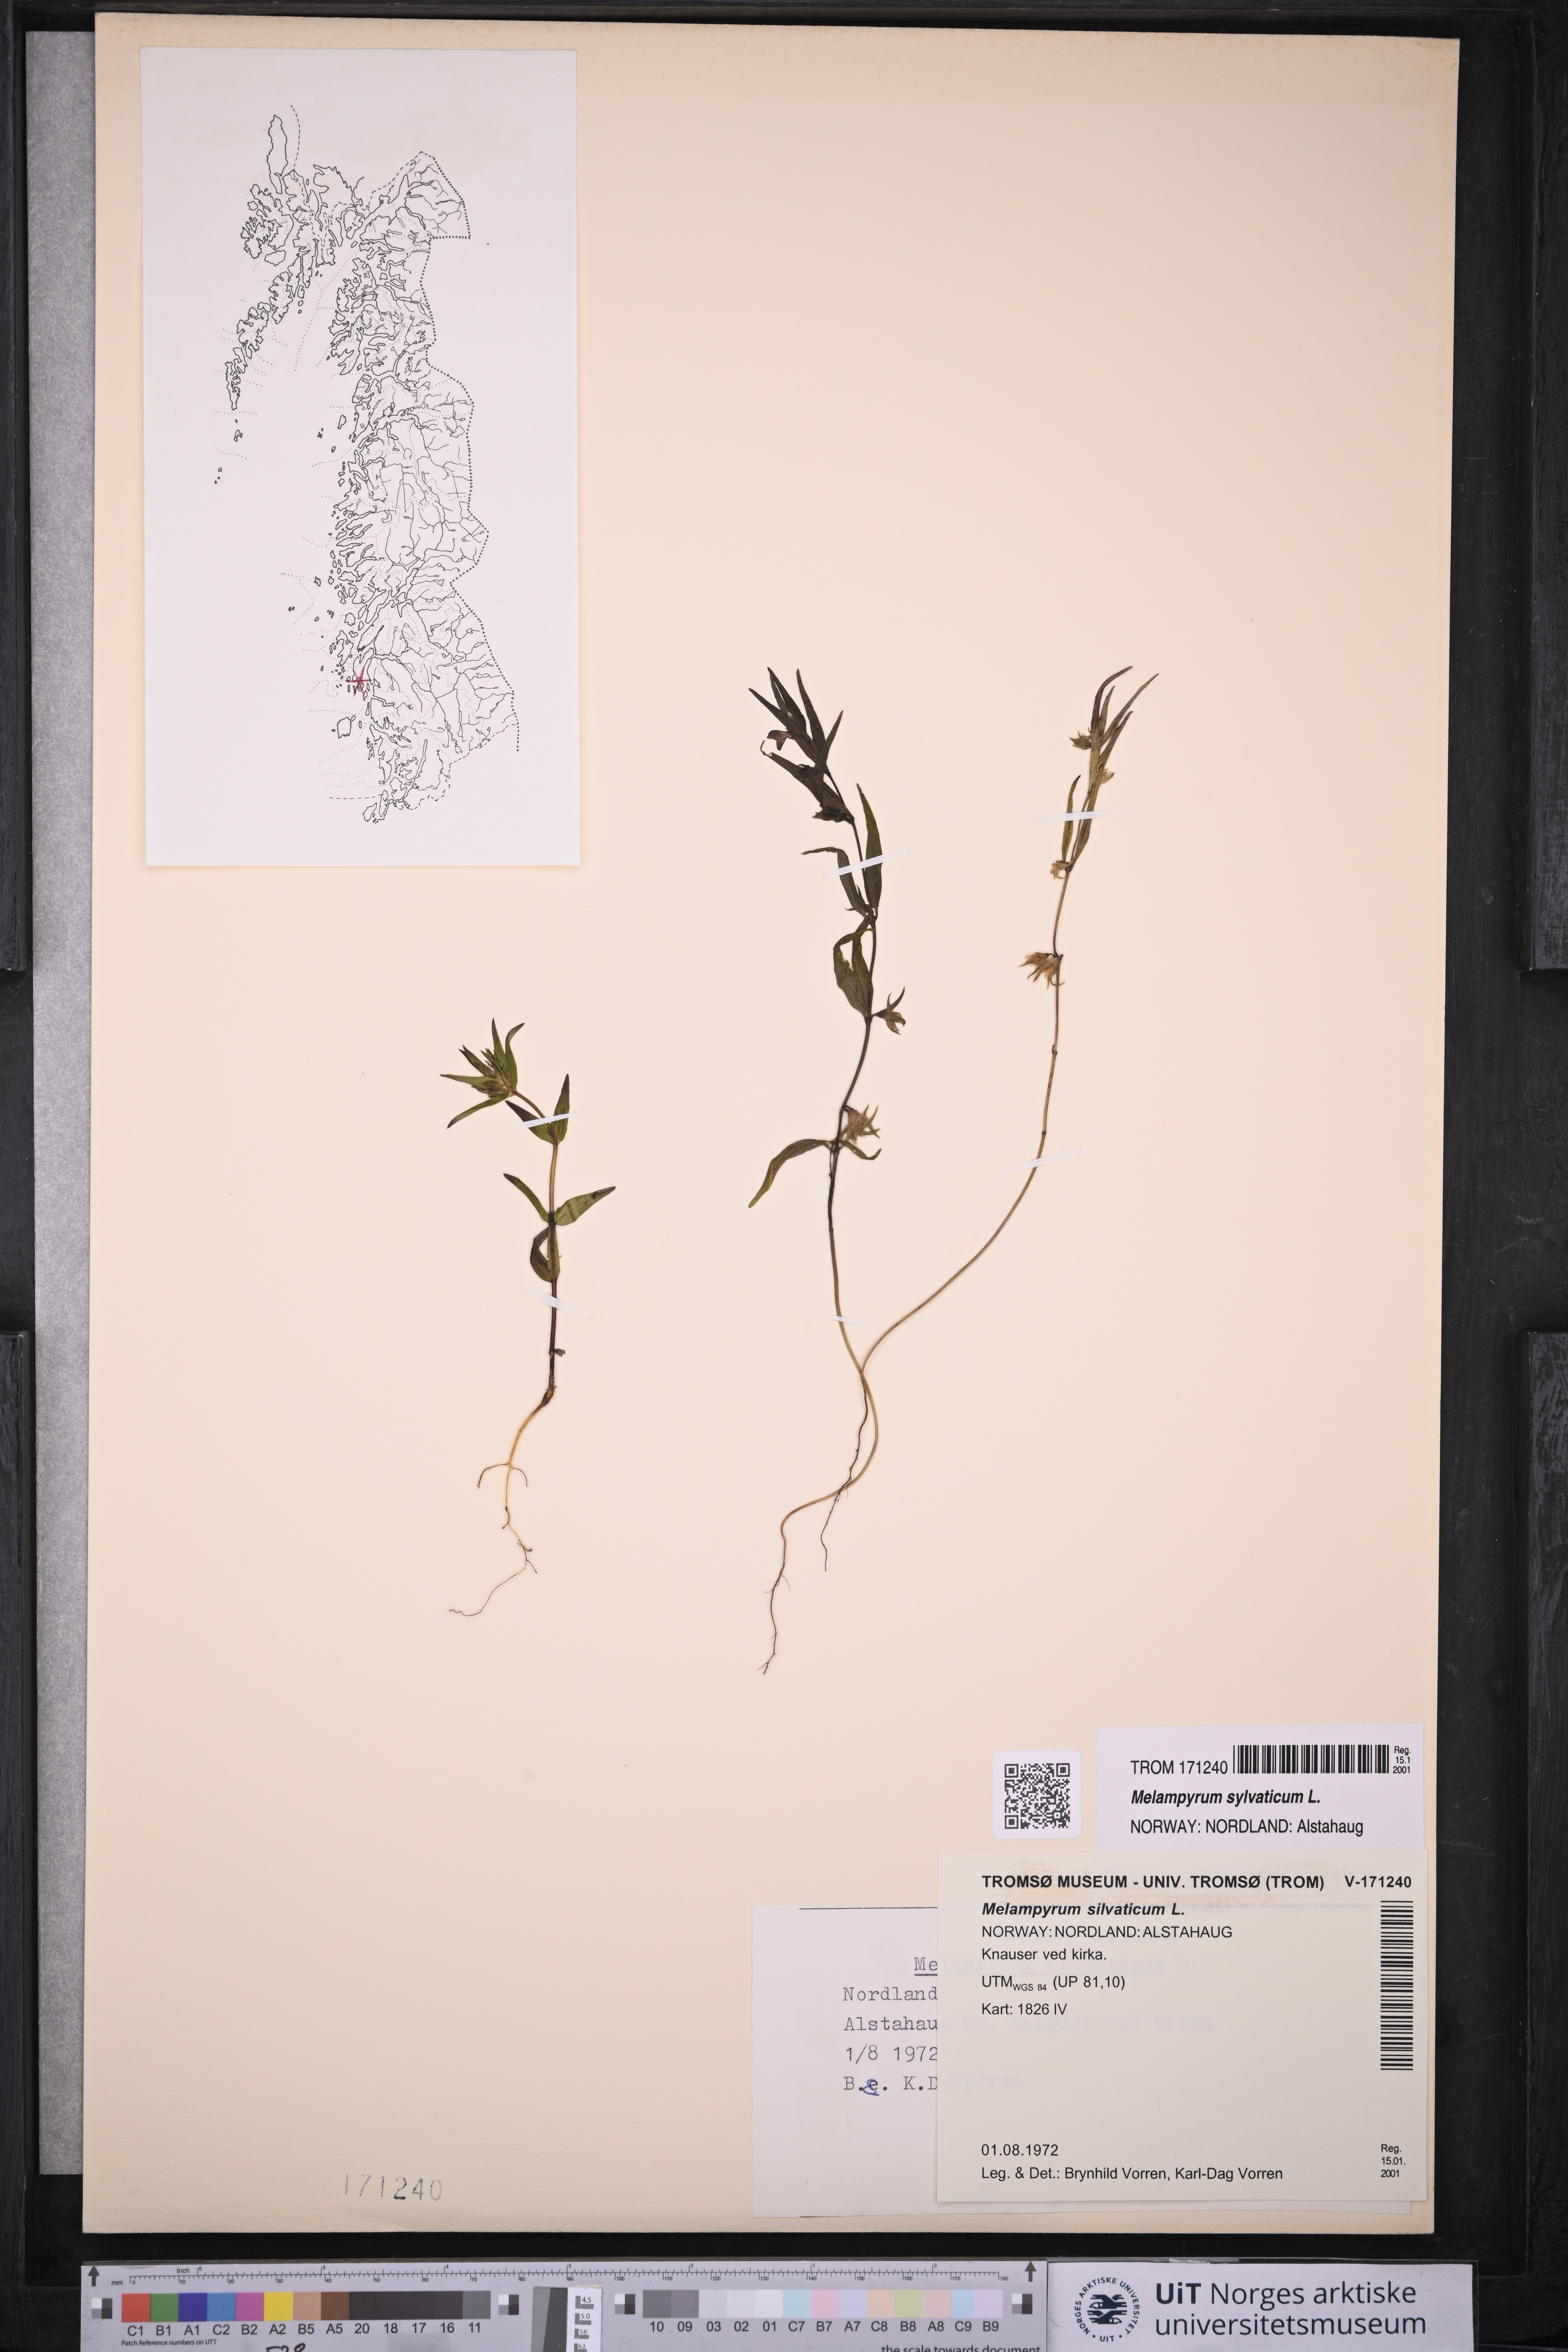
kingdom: Plantae
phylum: Tracheophyta
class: Magnoliopsida
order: Lamiales
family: Orobanchaceae
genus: Melampyrum
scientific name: Melampyrum sylvaticum
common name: Small cow-wheat
